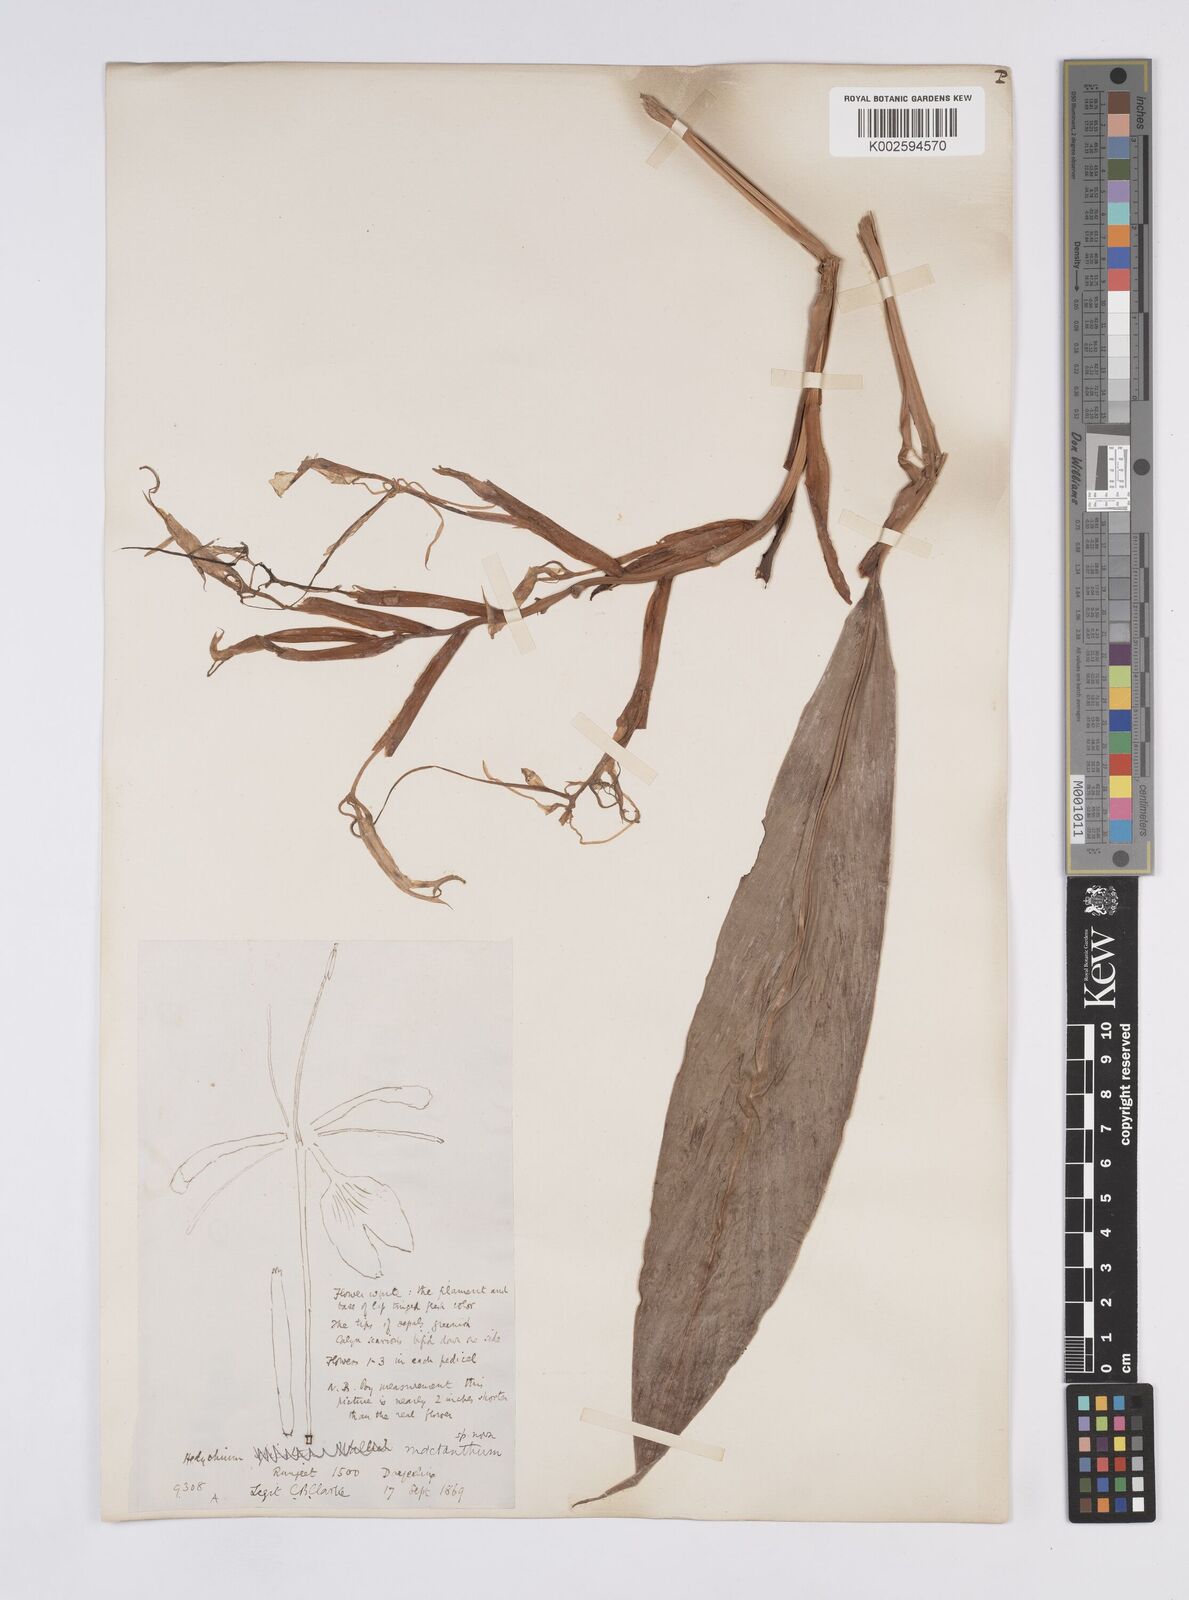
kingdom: Plantae
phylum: Tracheophyta
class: Liliopsida
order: Zingiberales
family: Zingiberaceae
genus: Hedychium
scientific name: Hedychium griffithianum
